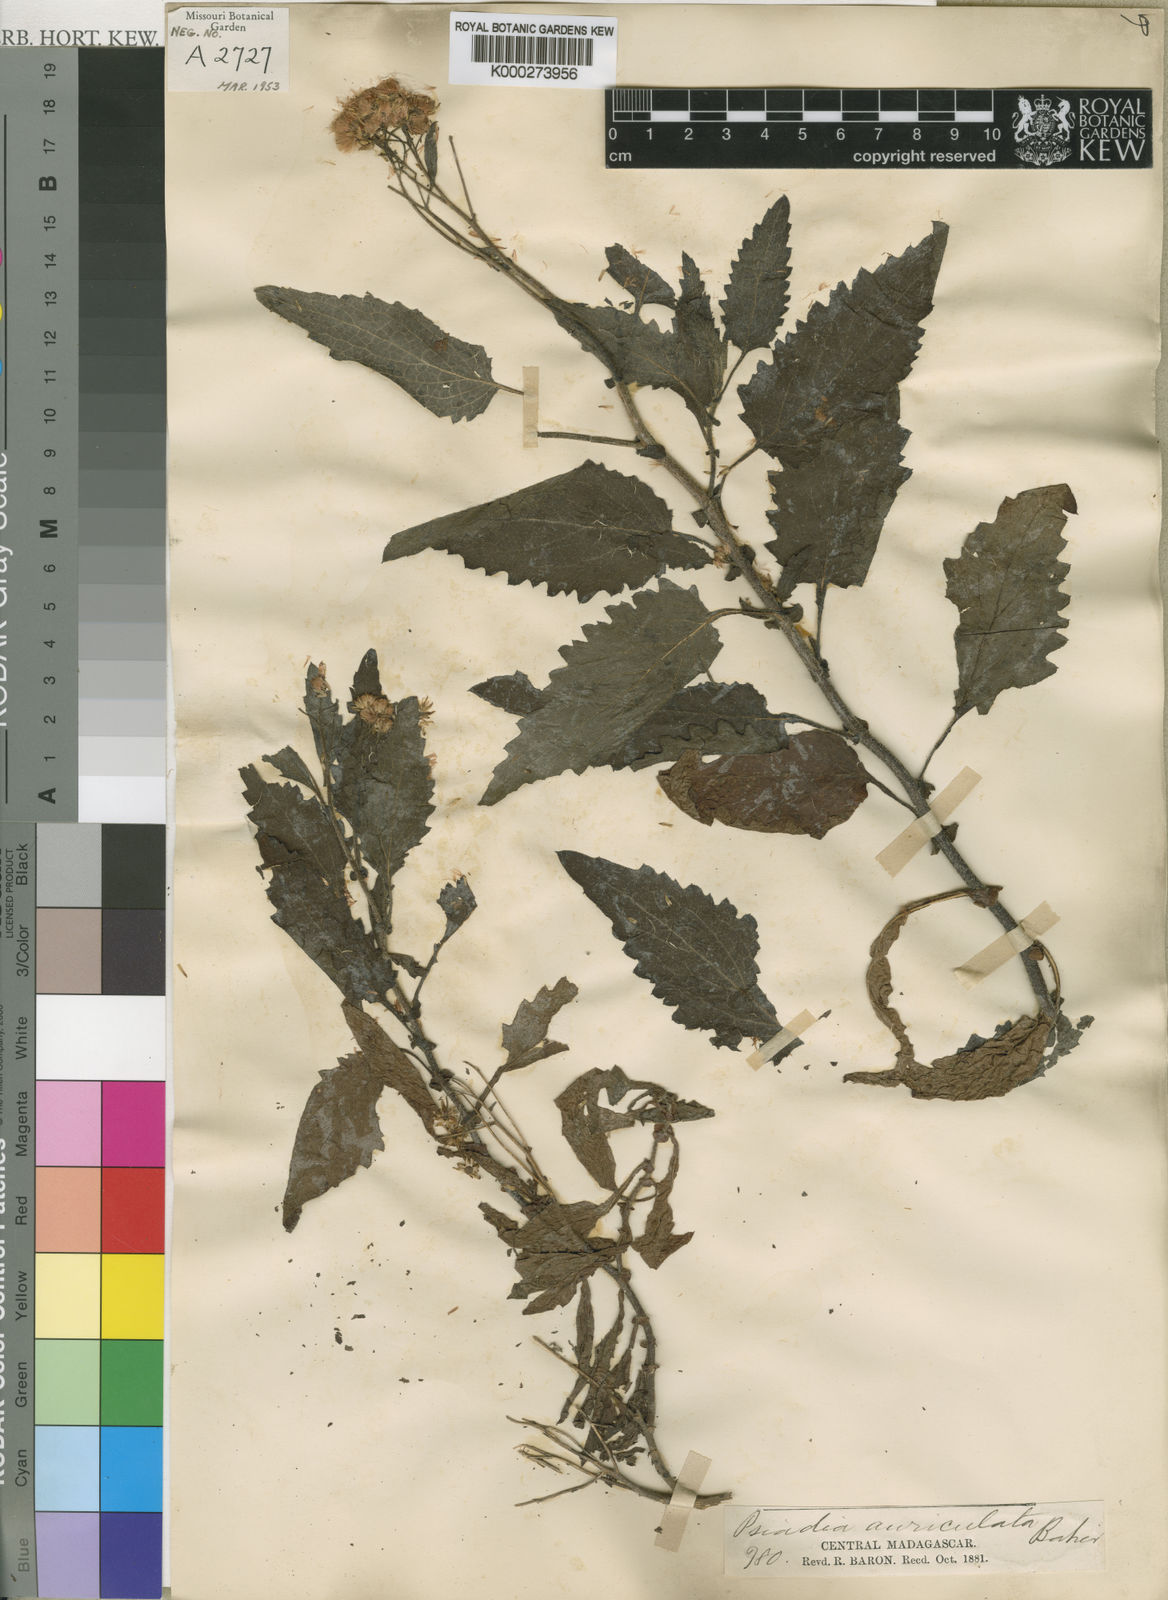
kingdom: Plantae
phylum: Tracheophyta
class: Magnoliopsida
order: Asterales
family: Asteraceae
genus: Psiadia
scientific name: Psiadia hispida
